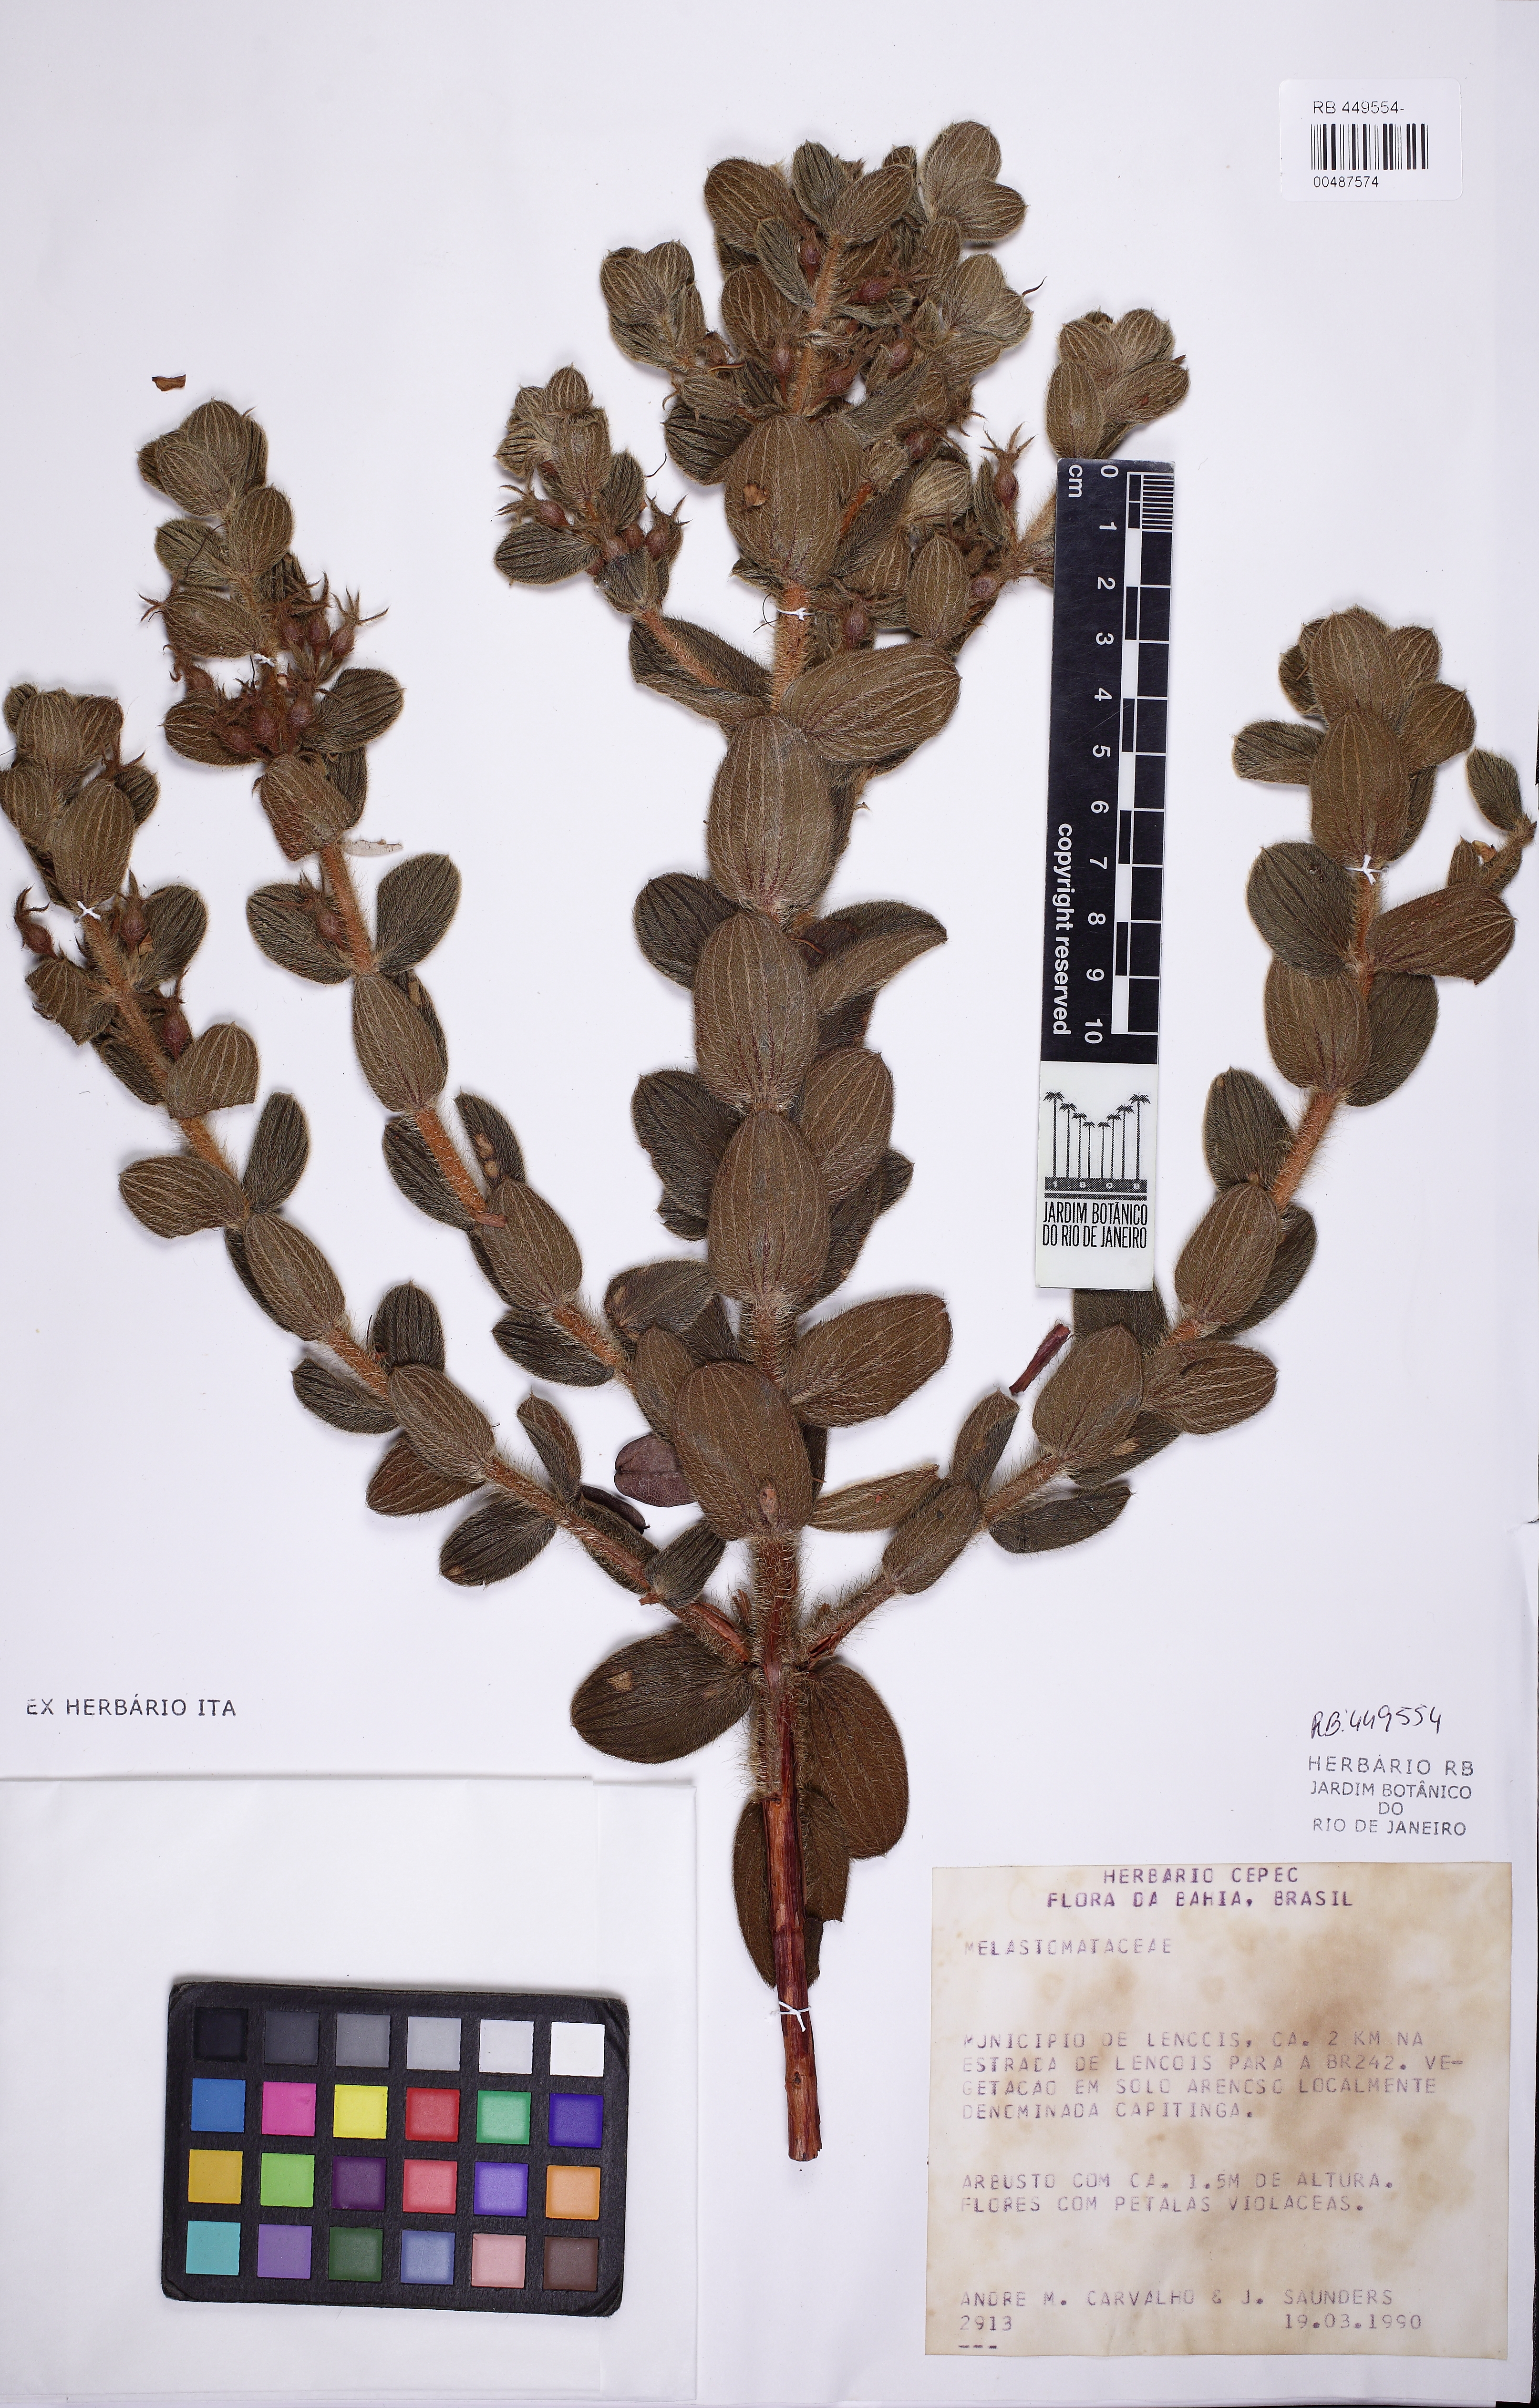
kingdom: Plantae
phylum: Tracheophyta
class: Magnoliopsida
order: Myrtales
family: Melastomataceae
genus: Marcetia
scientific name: Marcetia macrophylla
